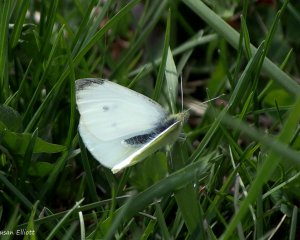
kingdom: Animalia
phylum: Arthropoda
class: Insecta
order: Lepidoptera
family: Pieridae
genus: Pieris
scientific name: Pieris rapae
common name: Cabbage White
